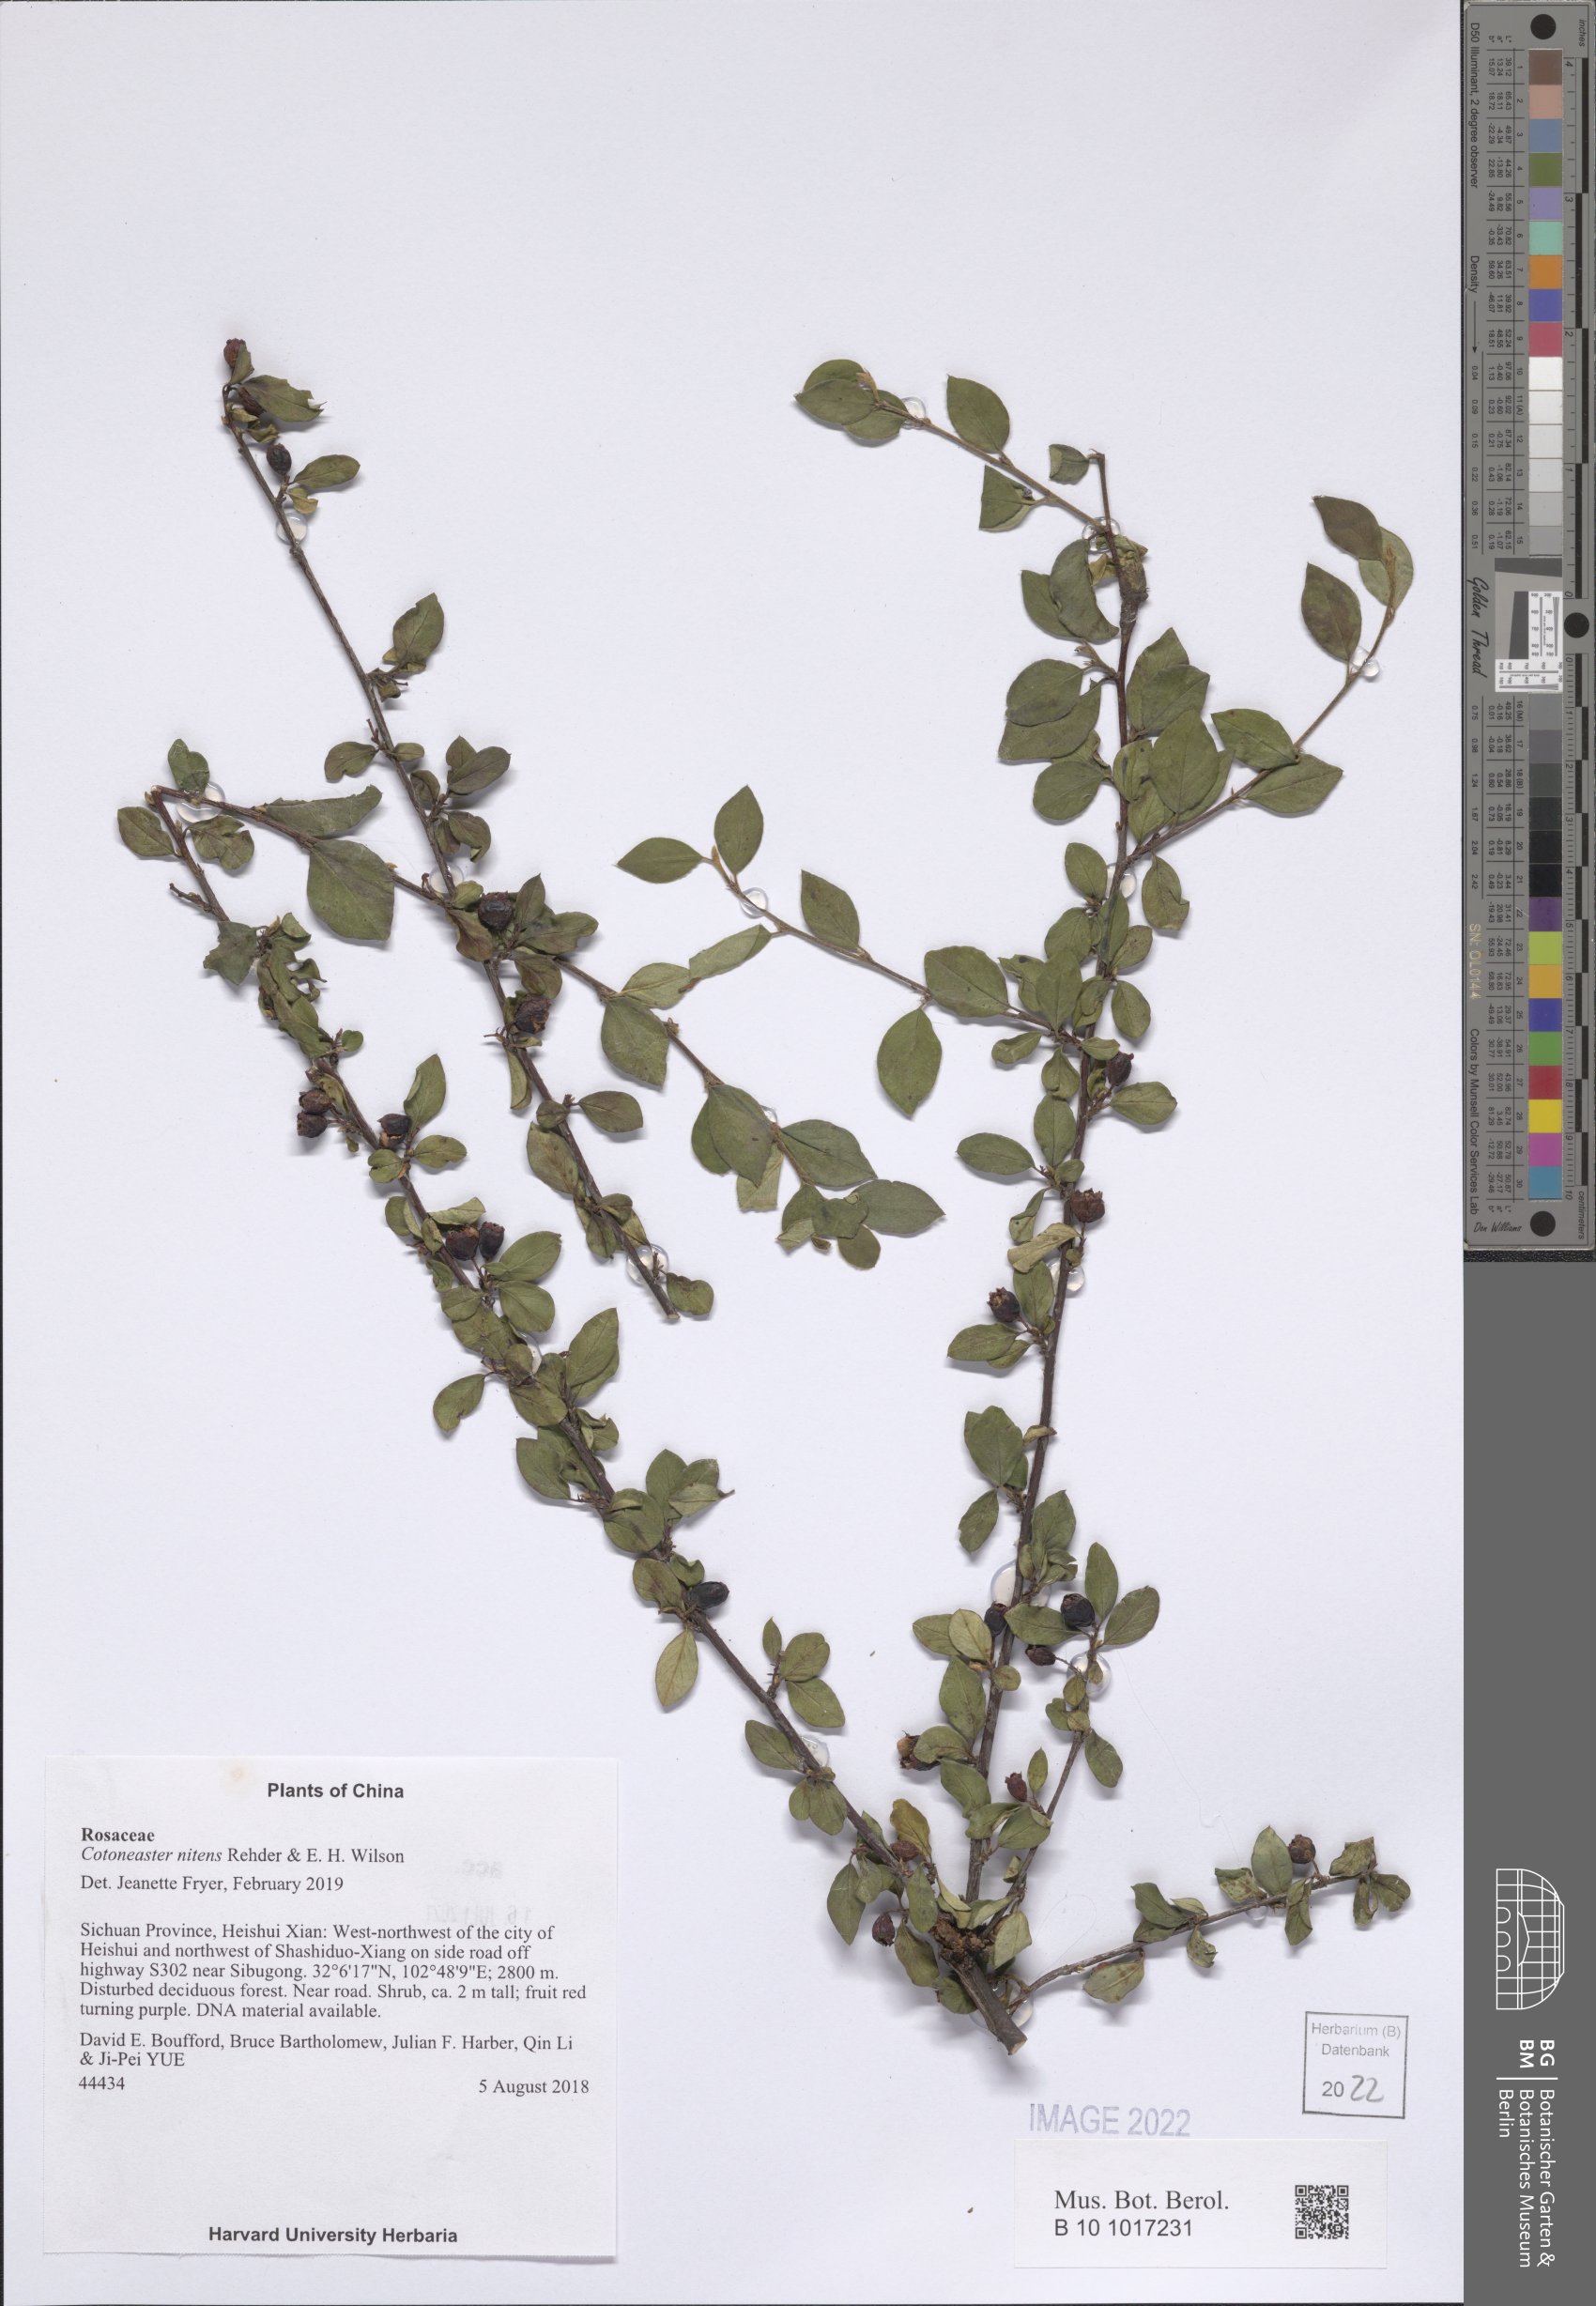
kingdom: Plantae
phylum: Tracheophyta
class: Magnoliopsida
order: Rosales
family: Rosaceae
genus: Cotoneaster
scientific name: Cotoneaster nitens
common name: Few-flowered cotoneaster
